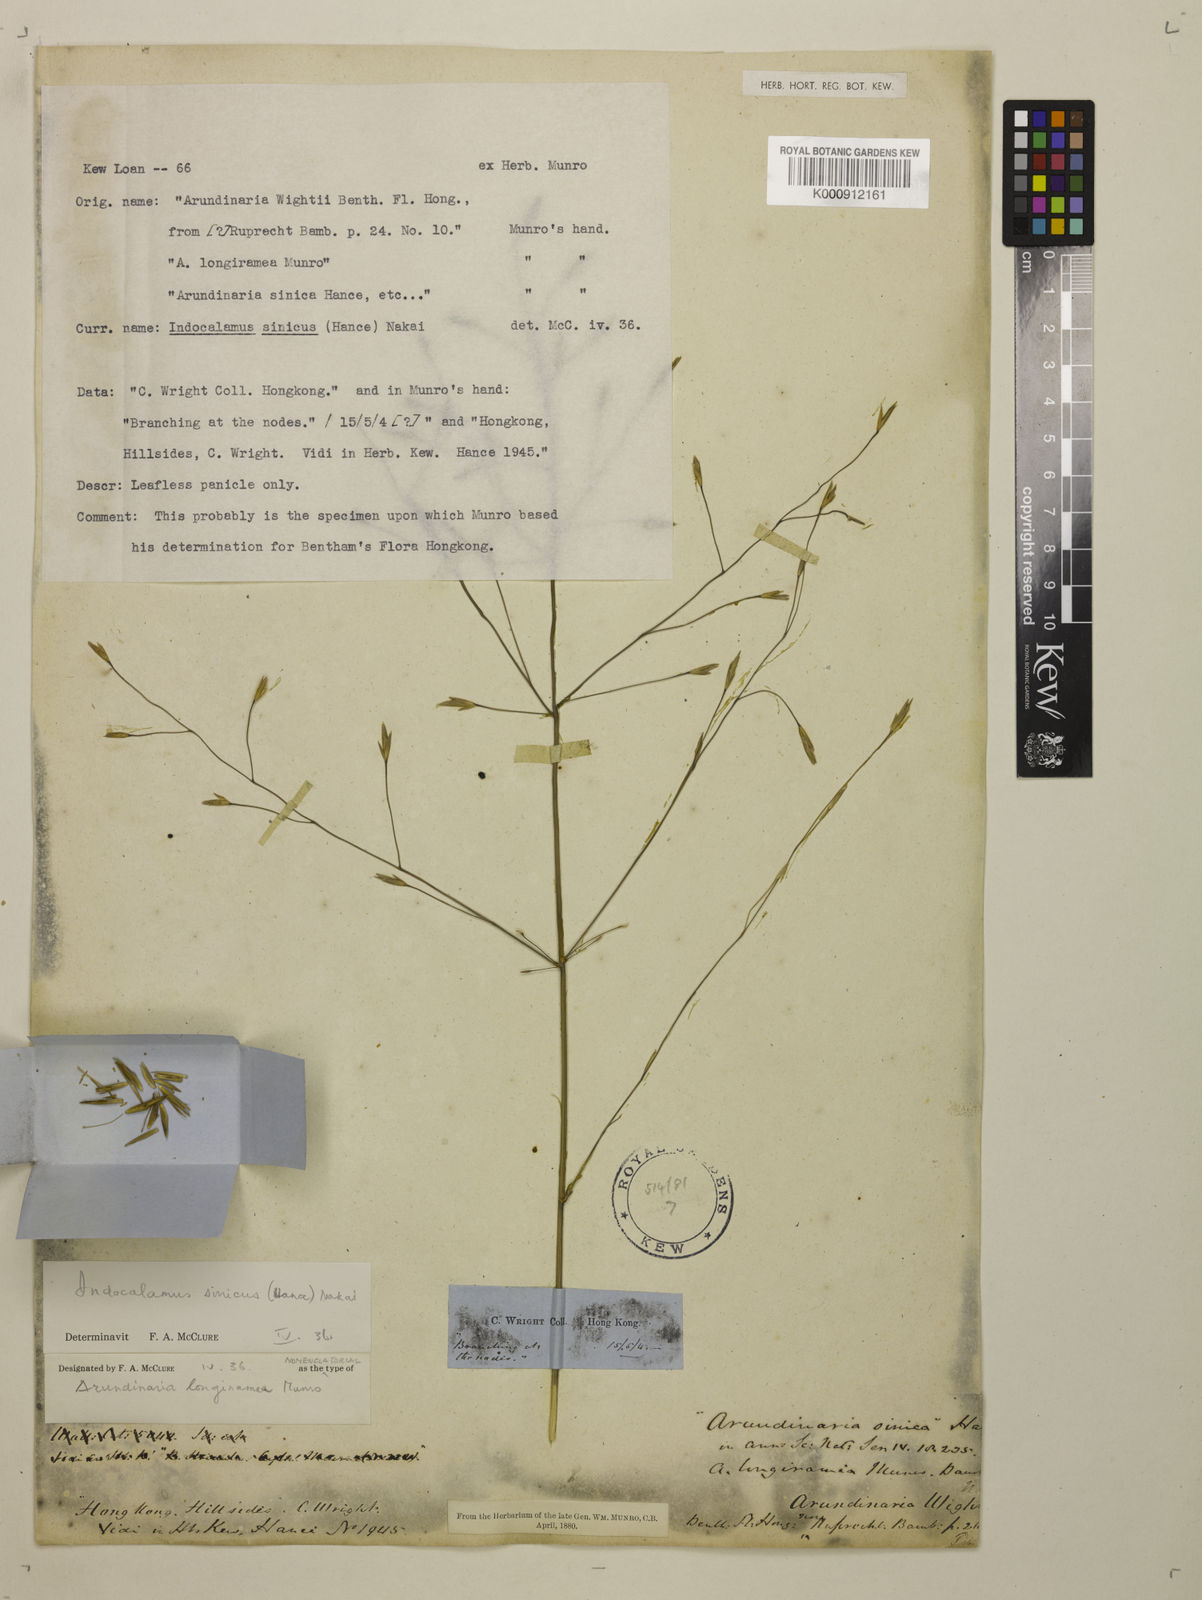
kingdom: Plantae
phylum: Tracheophyta
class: Liliopsida
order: Poales
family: Poaceae
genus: Indocalamus
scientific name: Indocalamus sinicus
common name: Chinese cane
